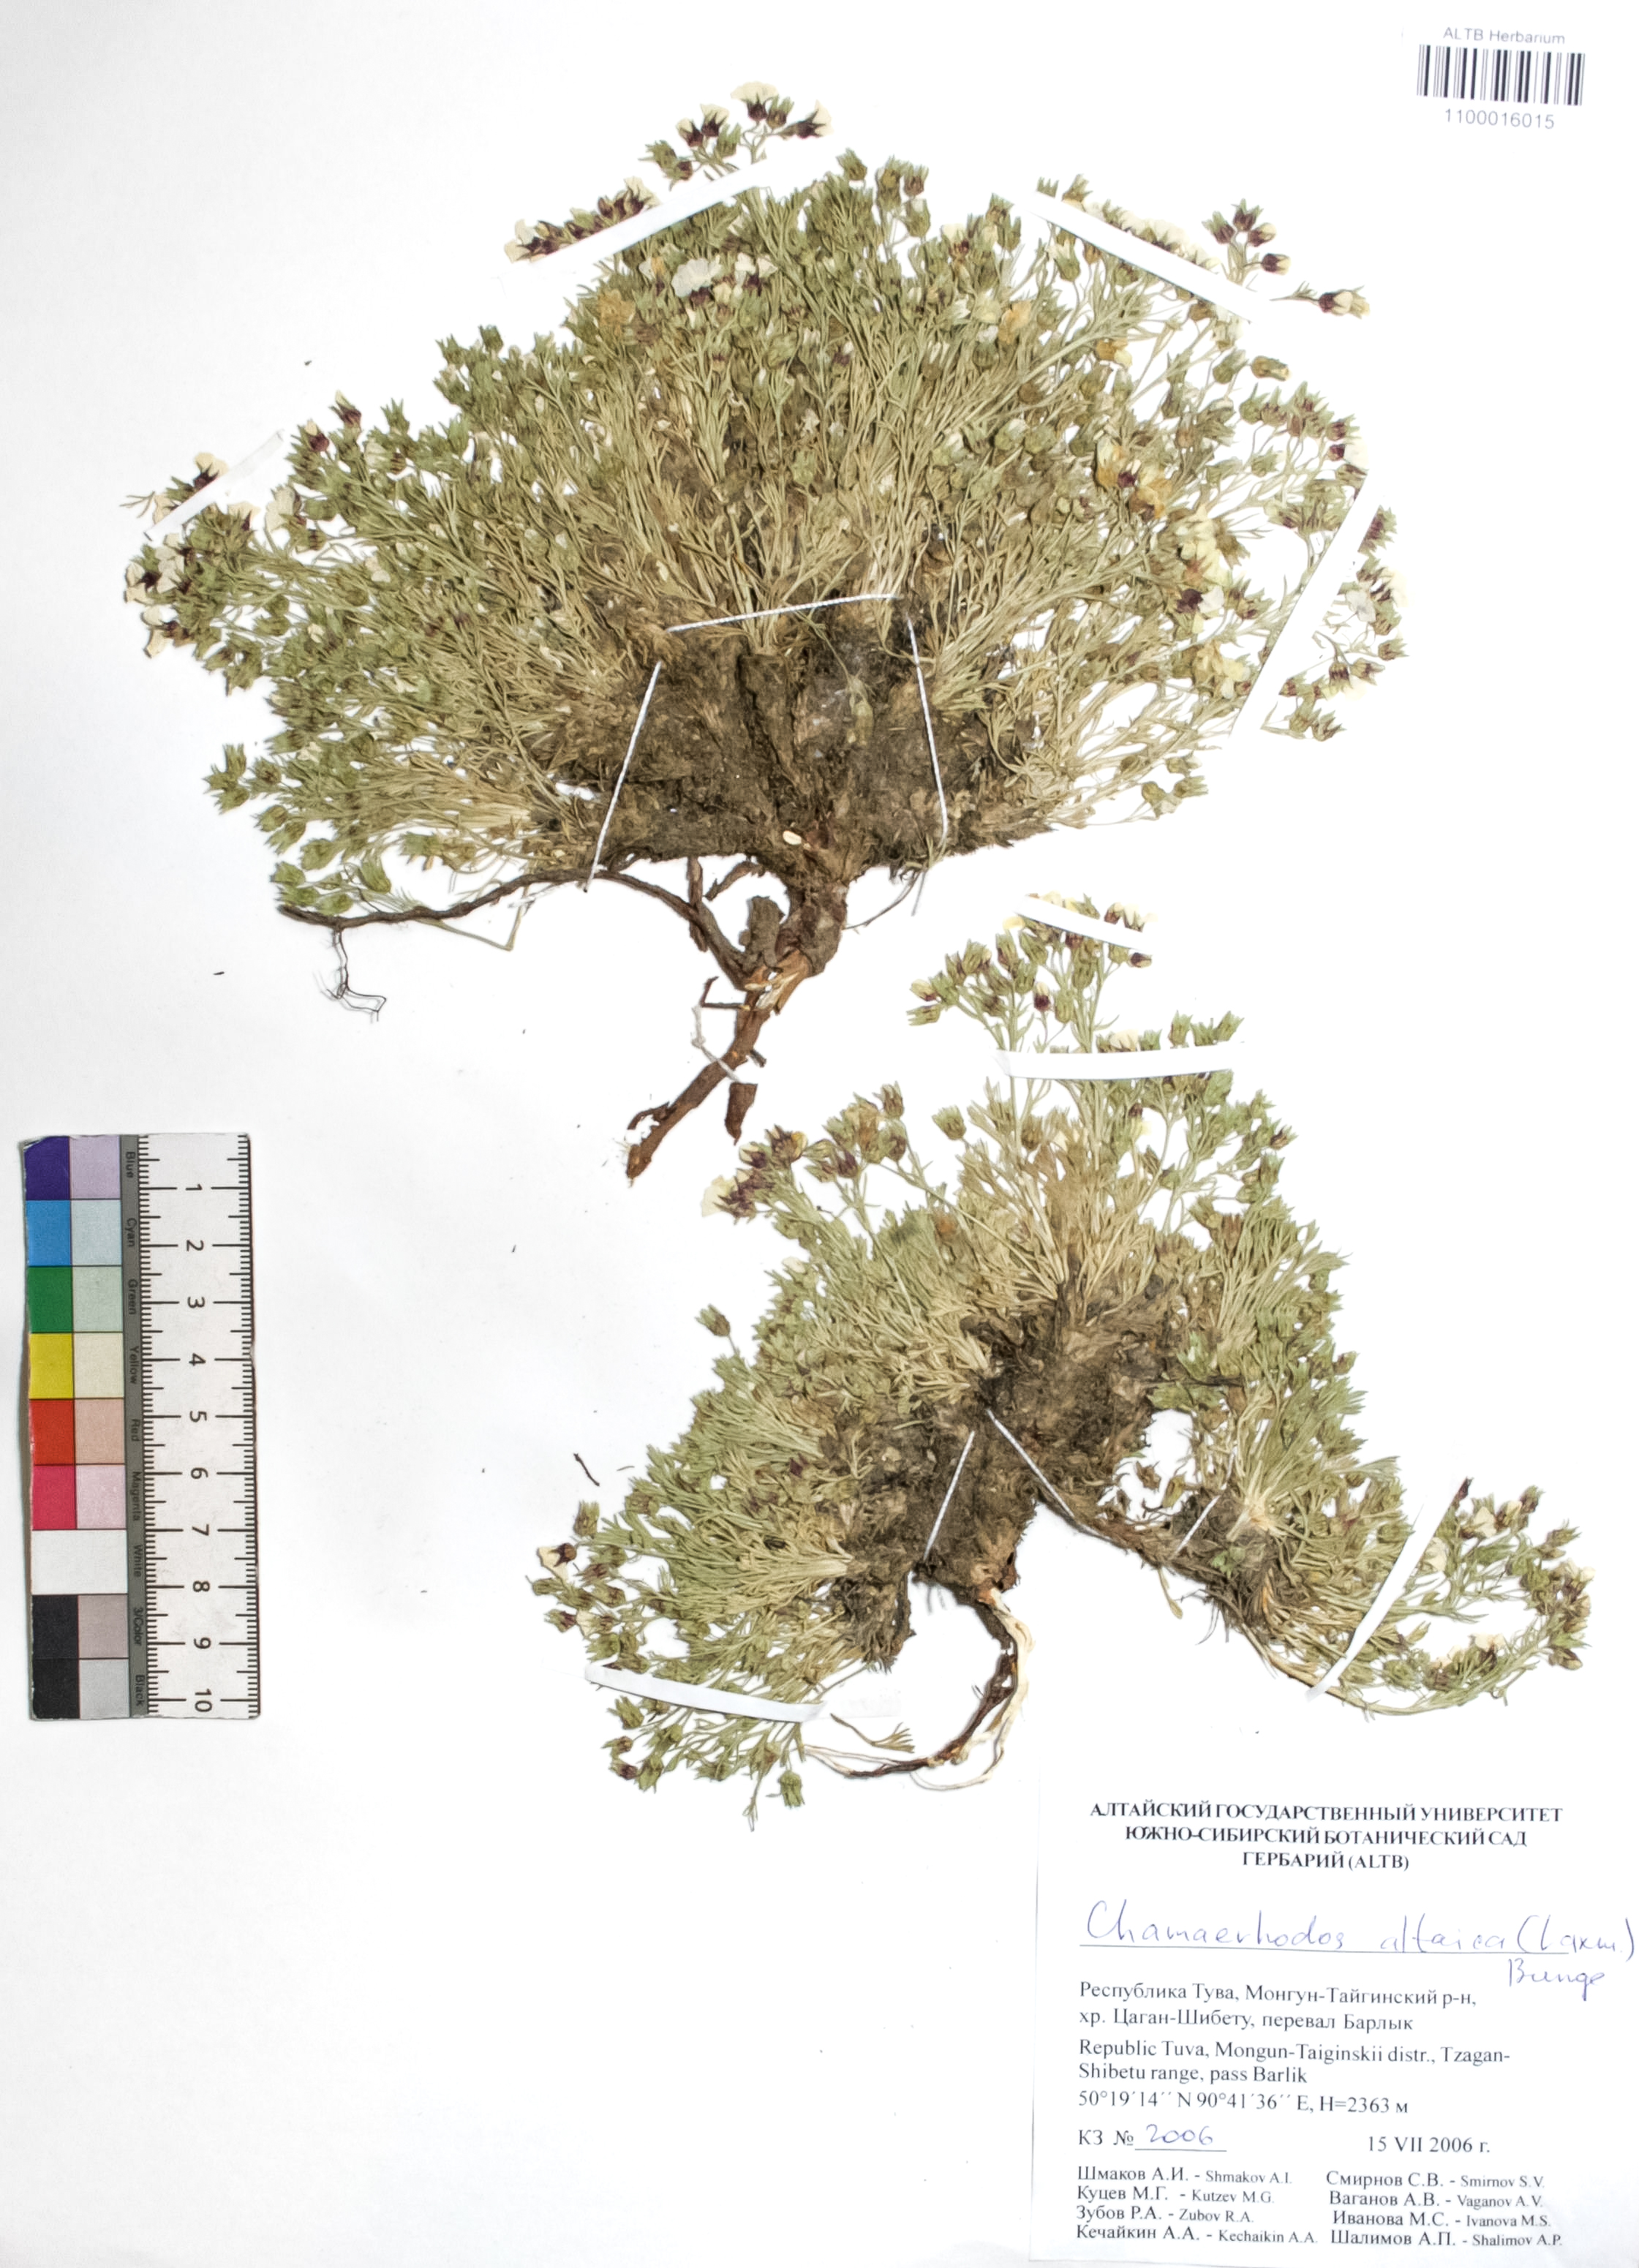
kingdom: Plantae
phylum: Tracheophyta
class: Magnoliopsida
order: Rosales
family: Rosaceae
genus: Chamaerhodos
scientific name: Chamaerhodos altaica
